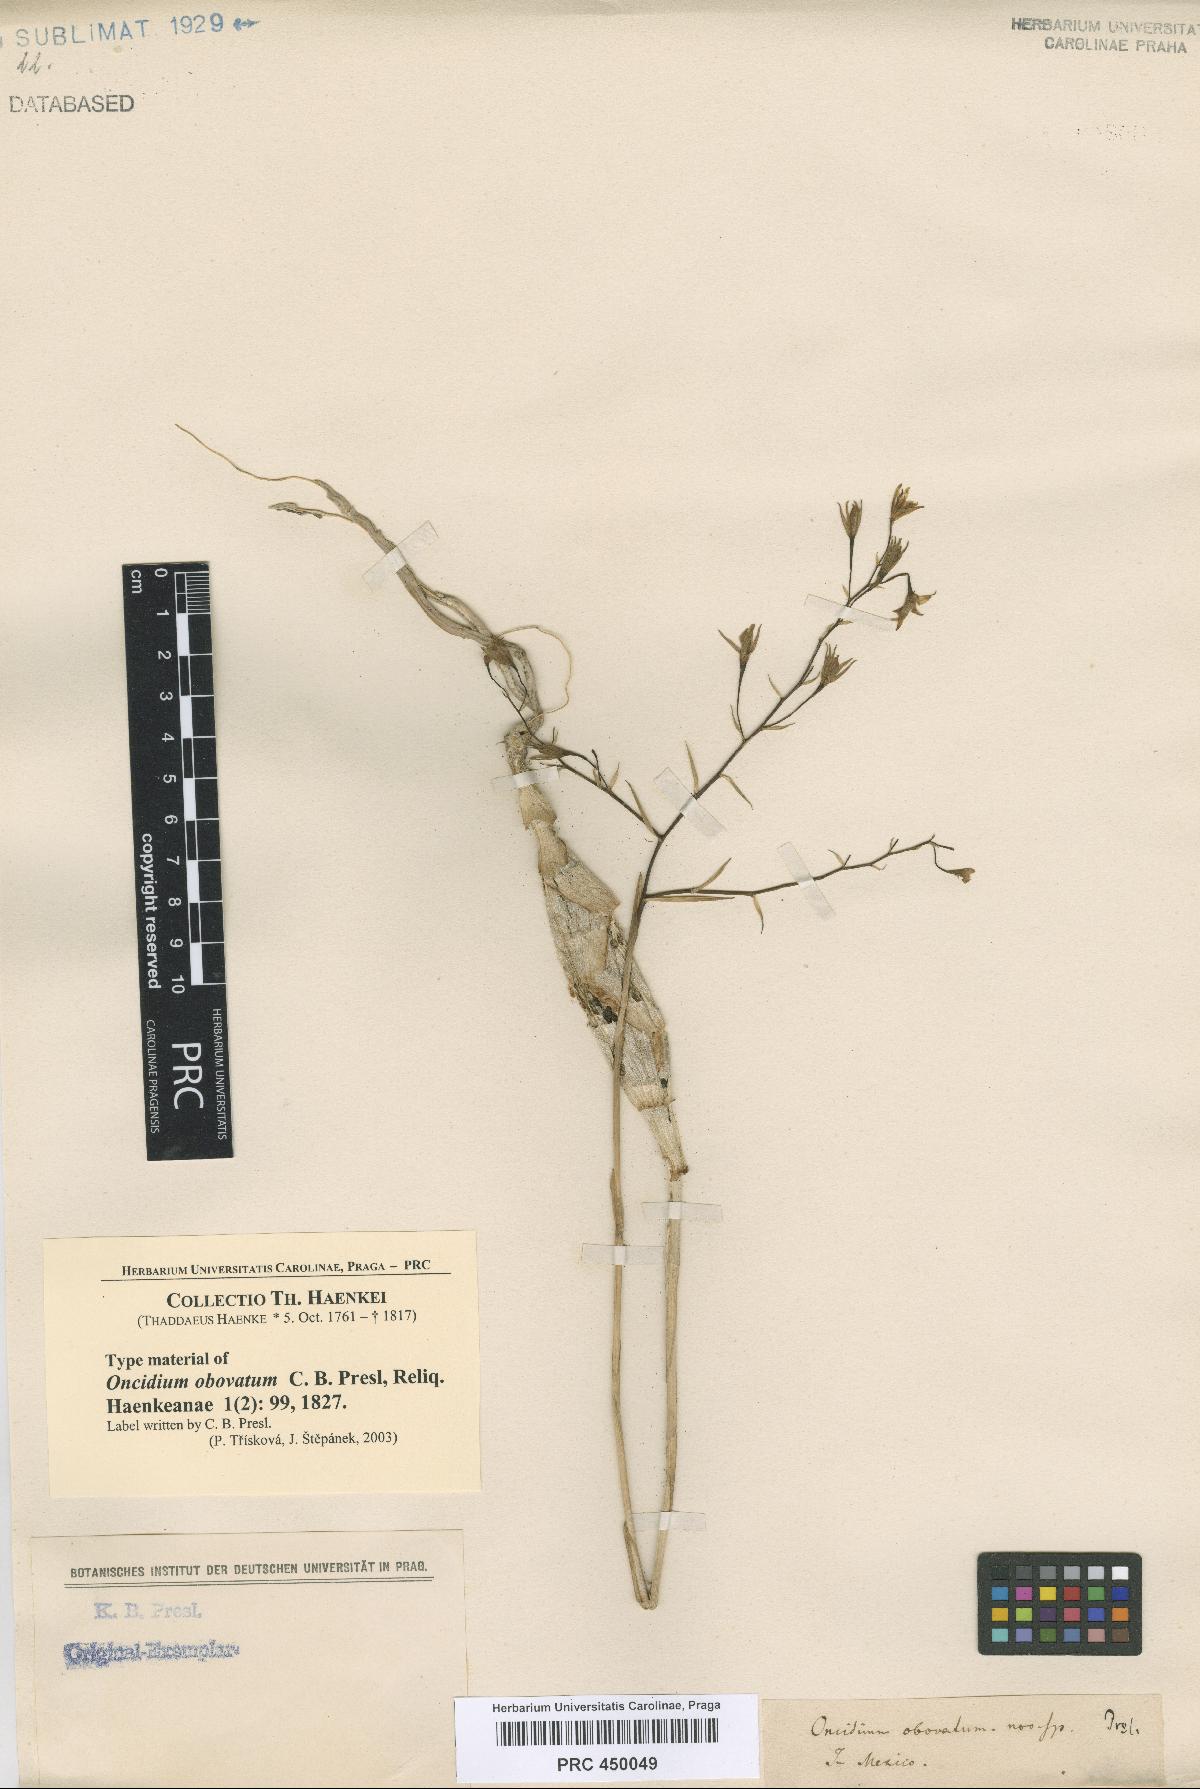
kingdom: Plantae
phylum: Tracheophyta
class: Liliopsida
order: Asparagales
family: Orchidaceae
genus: Barkeria
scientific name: Barkeria obovata
